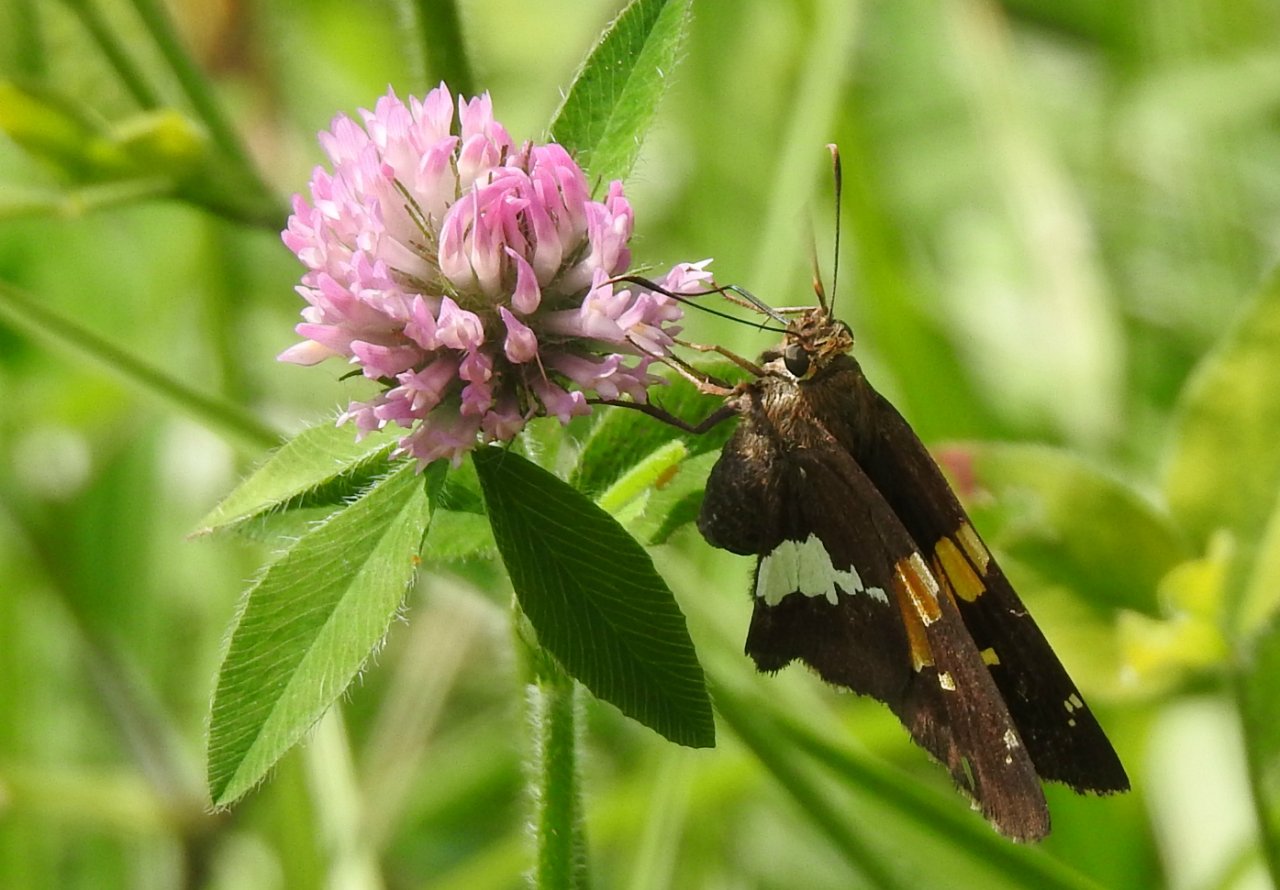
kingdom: Animalia
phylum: Arthropoda
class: Insecta
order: Lepidoptera
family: Hesperiidae
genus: Epargyreus
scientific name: Epargyreus clarus
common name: Silver-spotted Skipper
